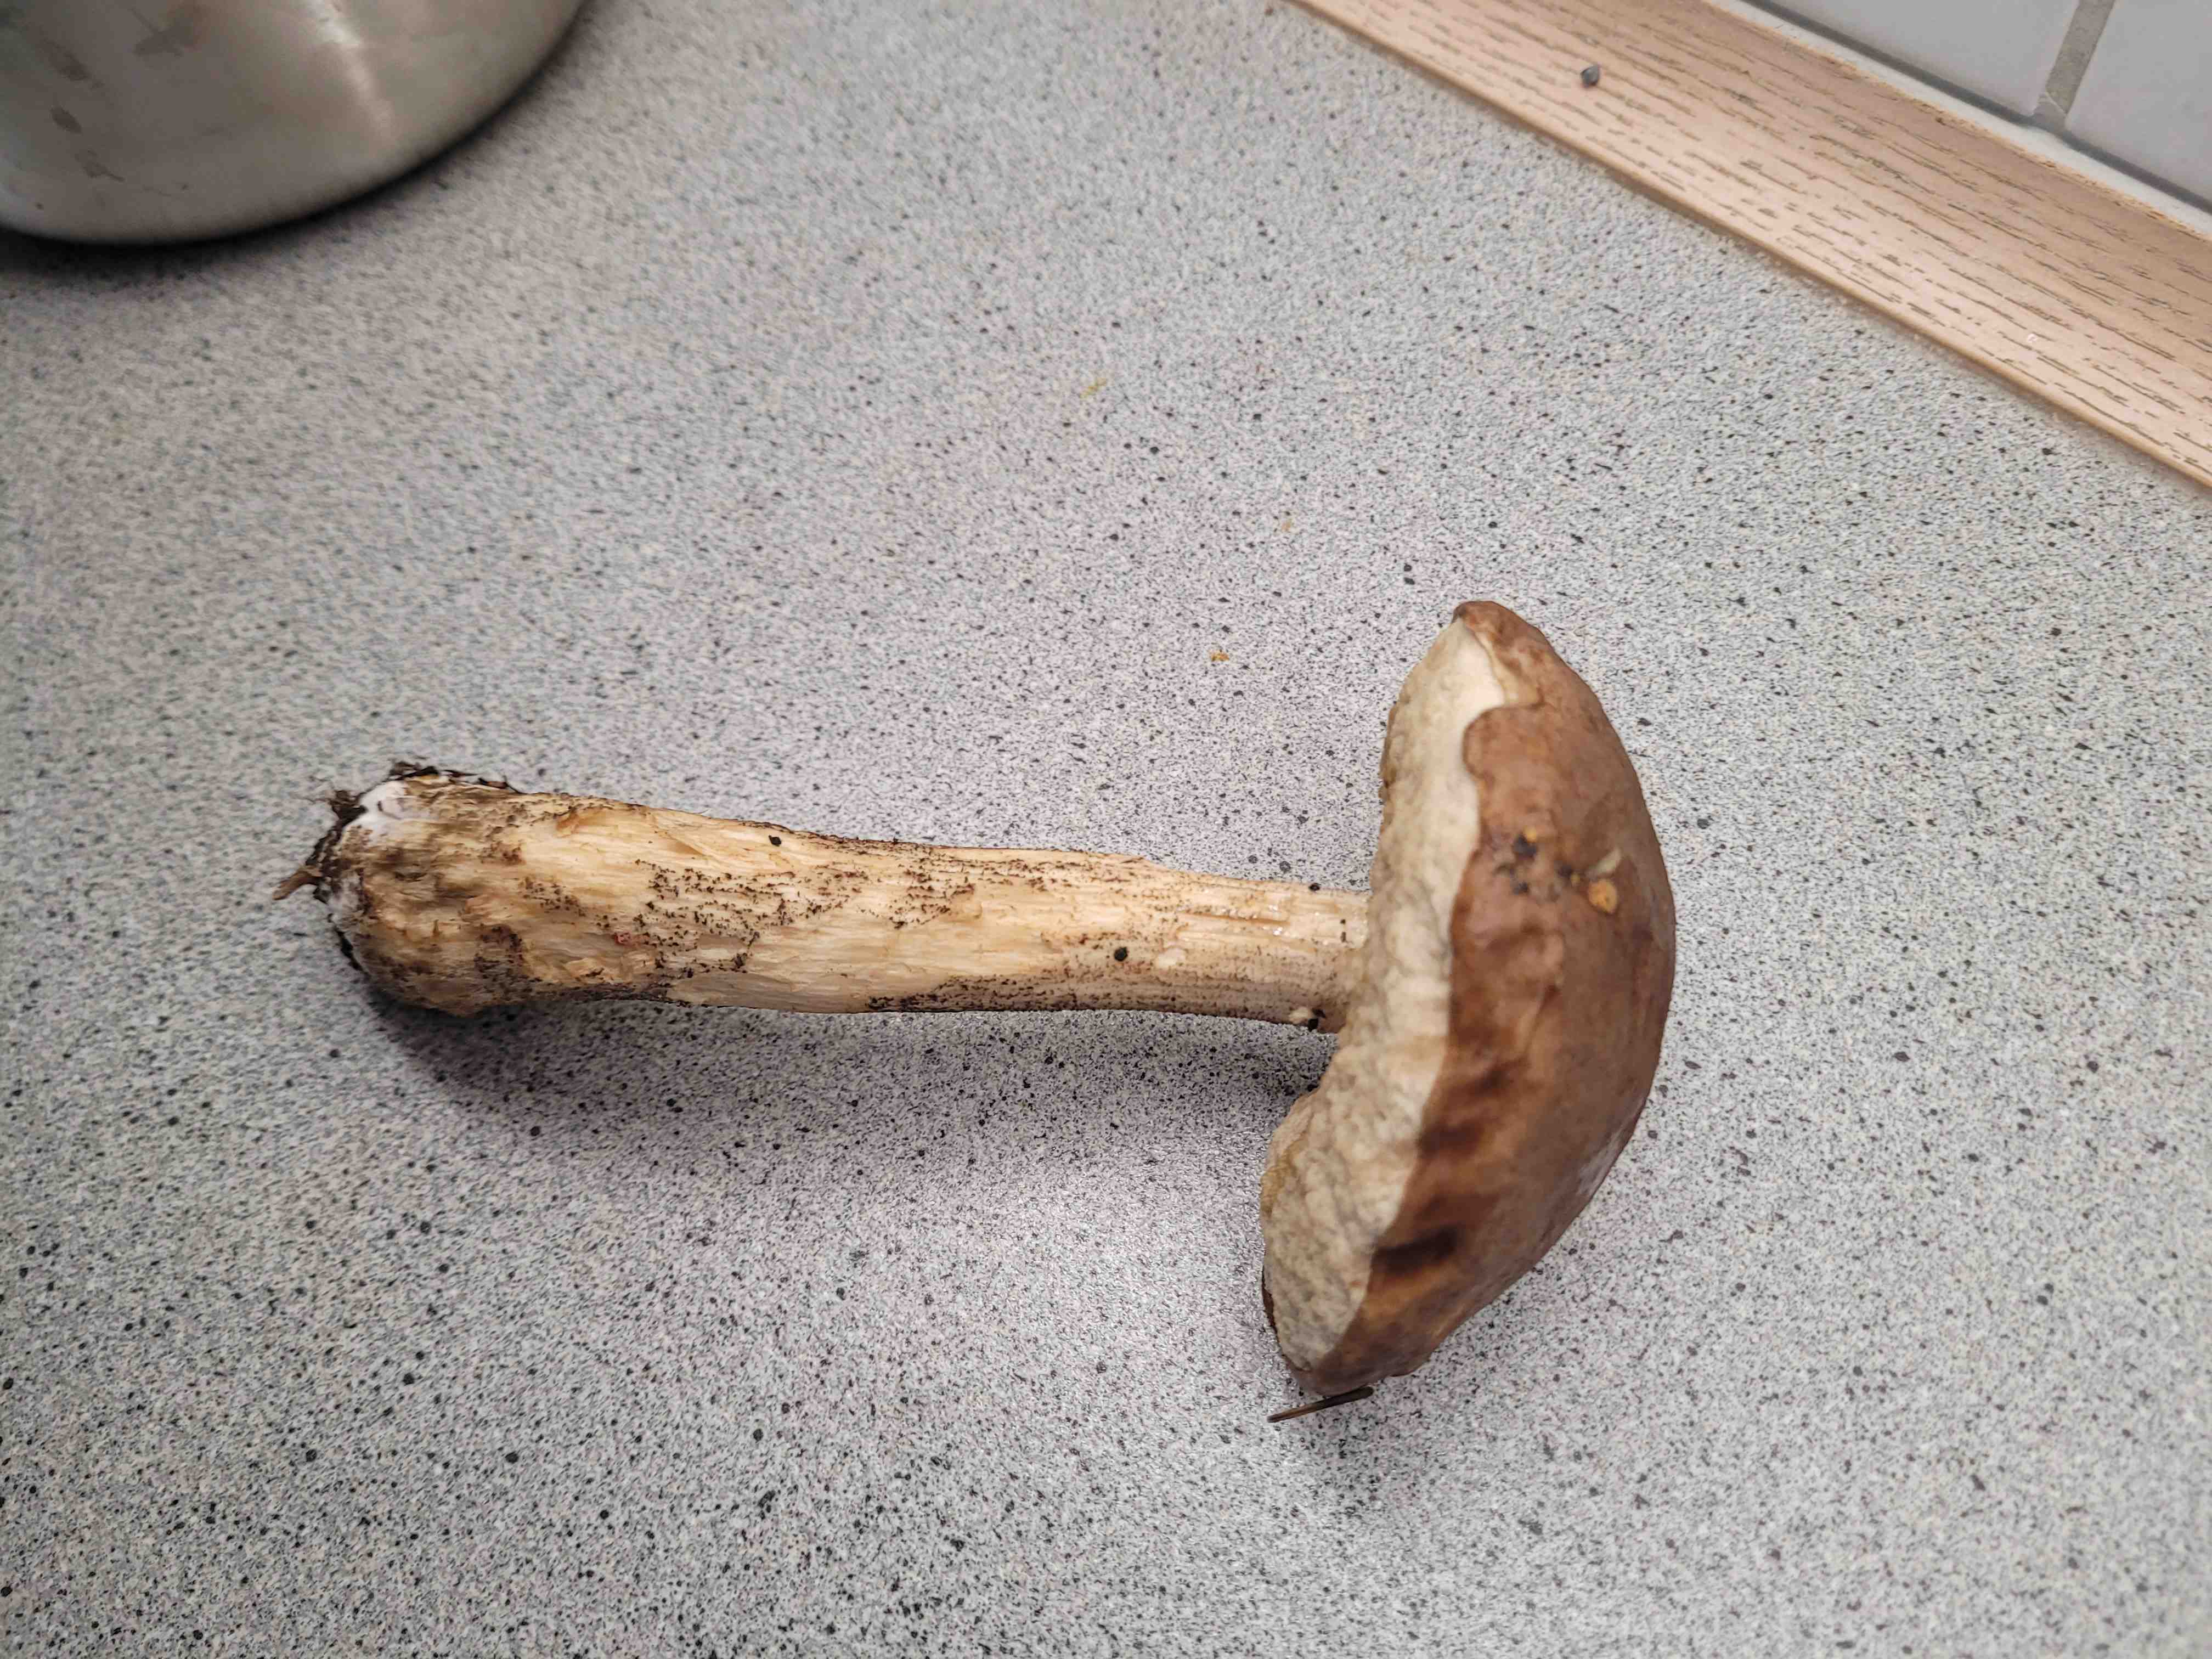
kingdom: Fungi
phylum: Basidiomycota
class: Agaricomycetes
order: Boletales
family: Boletaceae
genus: Leccinum
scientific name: Leccinum scabrum
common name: brun skælrørhat
